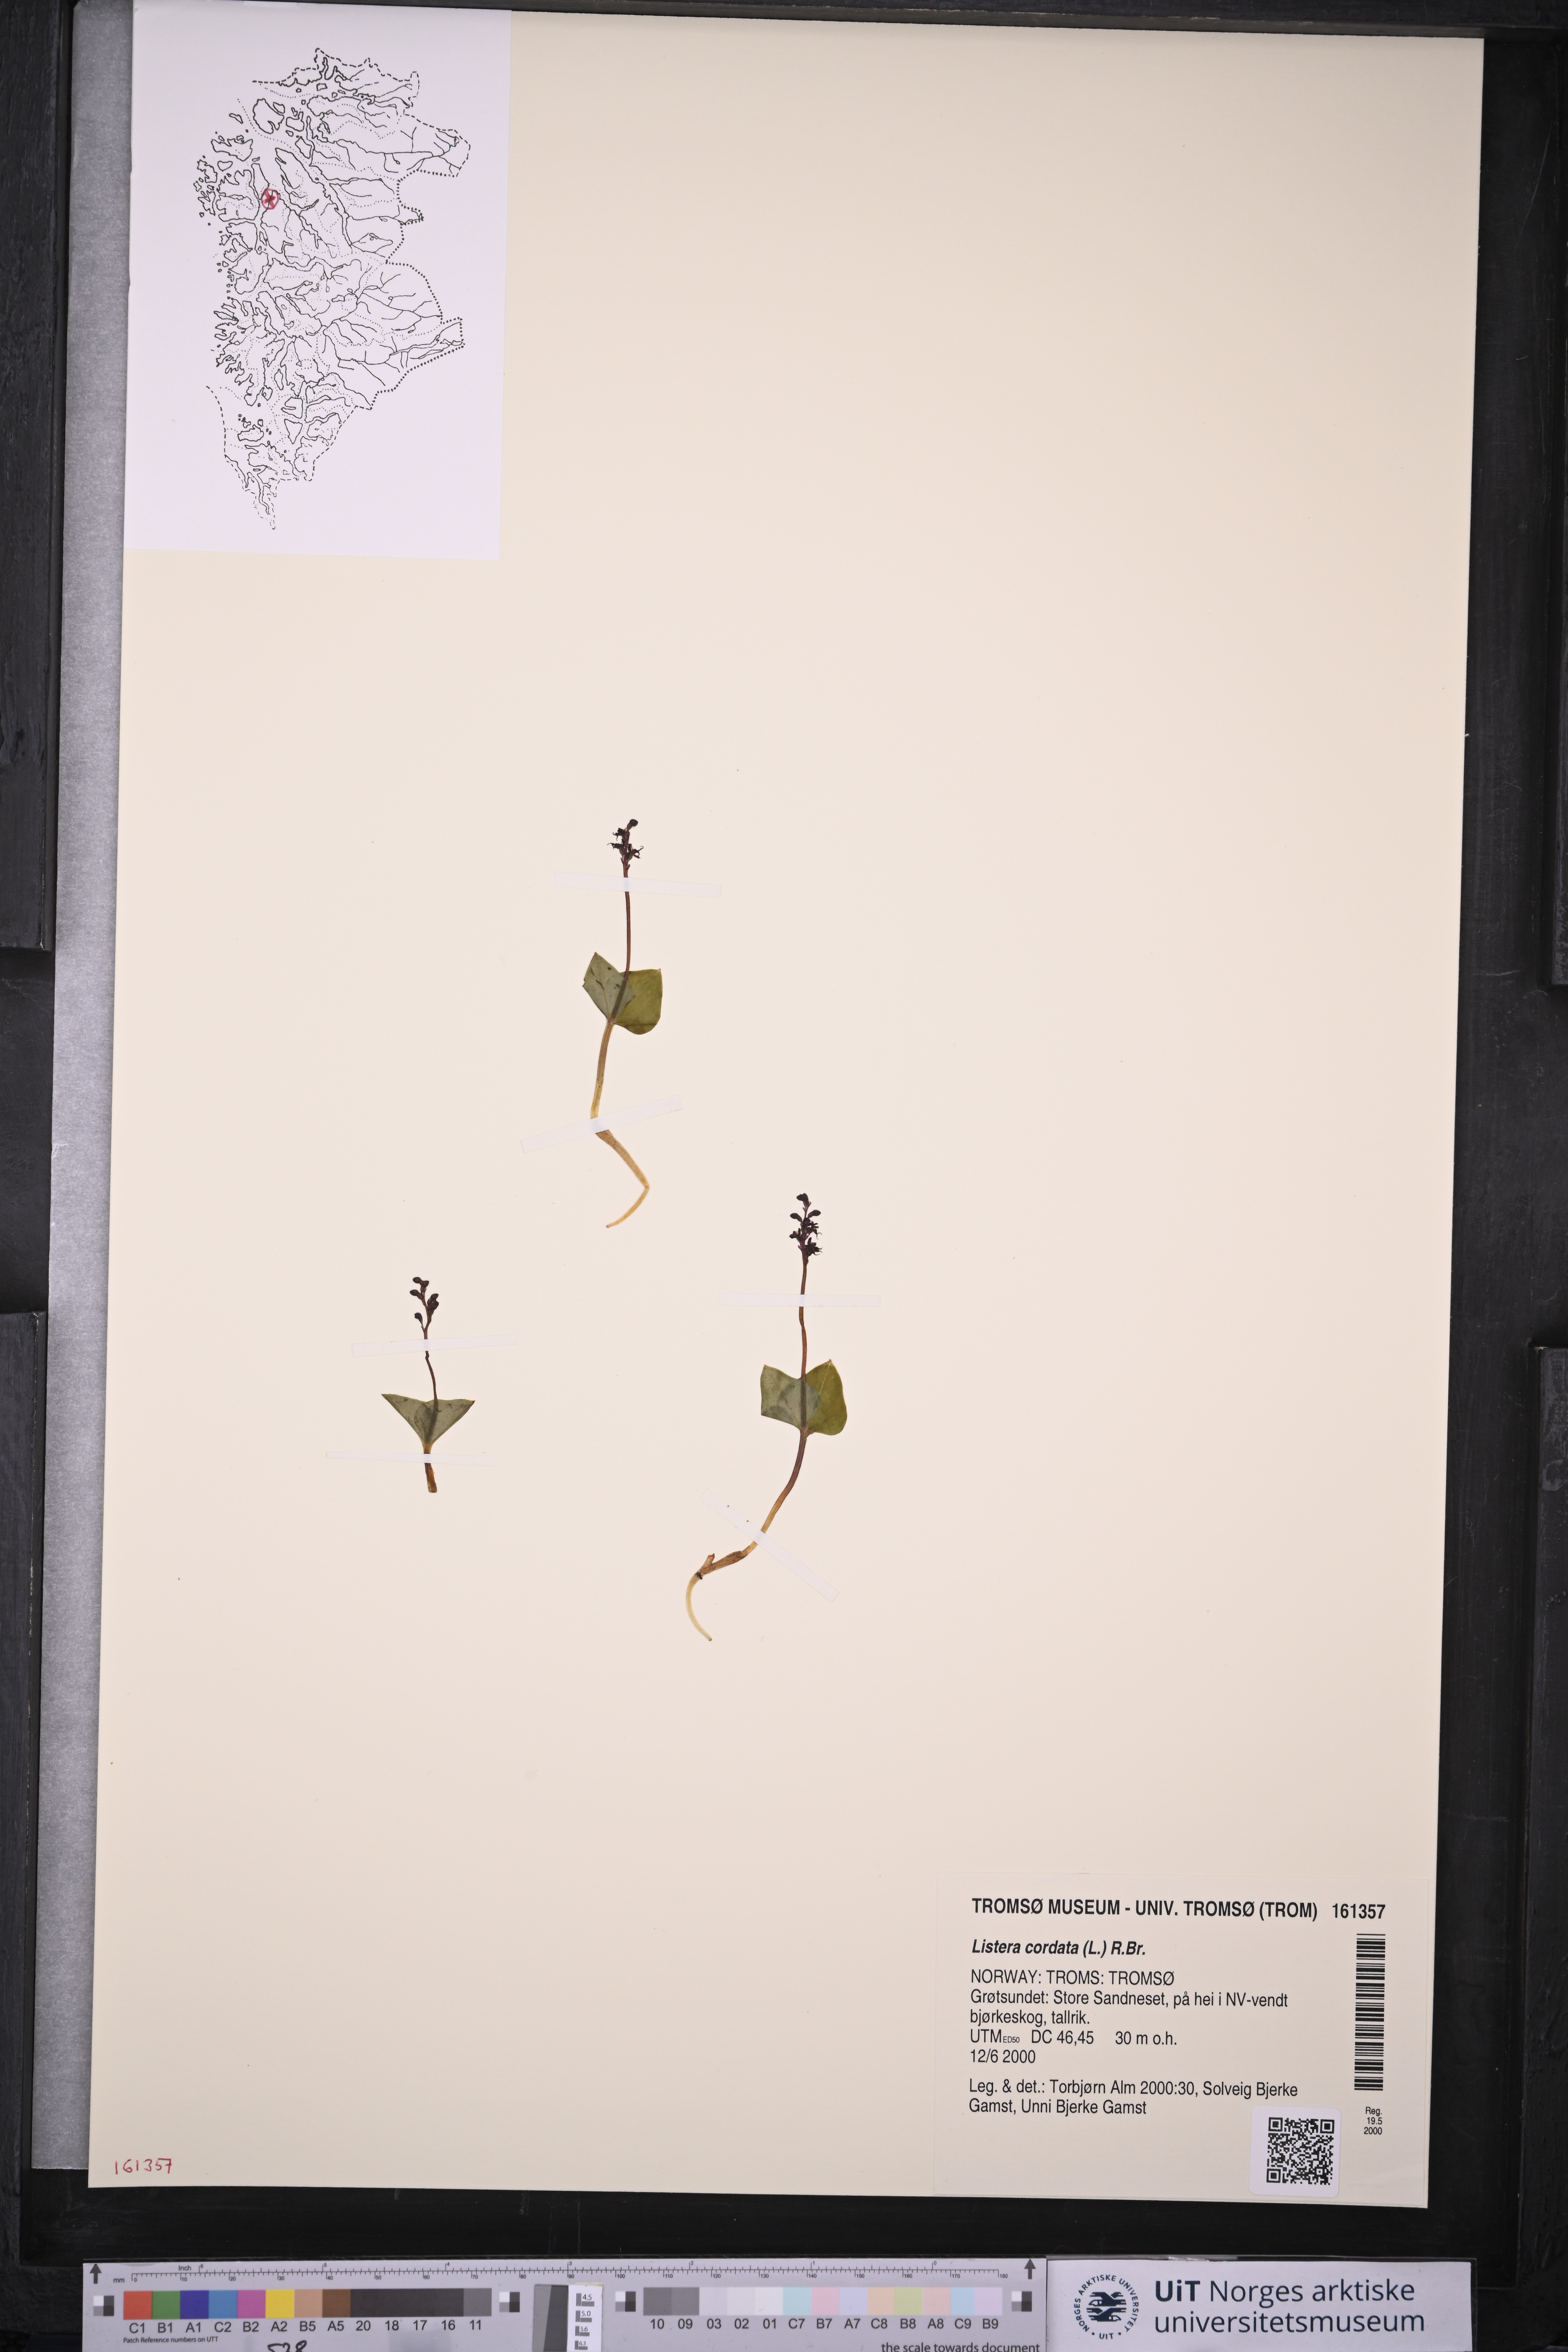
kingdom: Plantae
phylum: Tracheophyta
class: Liliopsida
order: Asparagales
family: Orchidaceae
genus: Neottia
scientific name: Neottia cordata
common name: Lesser twayblade
